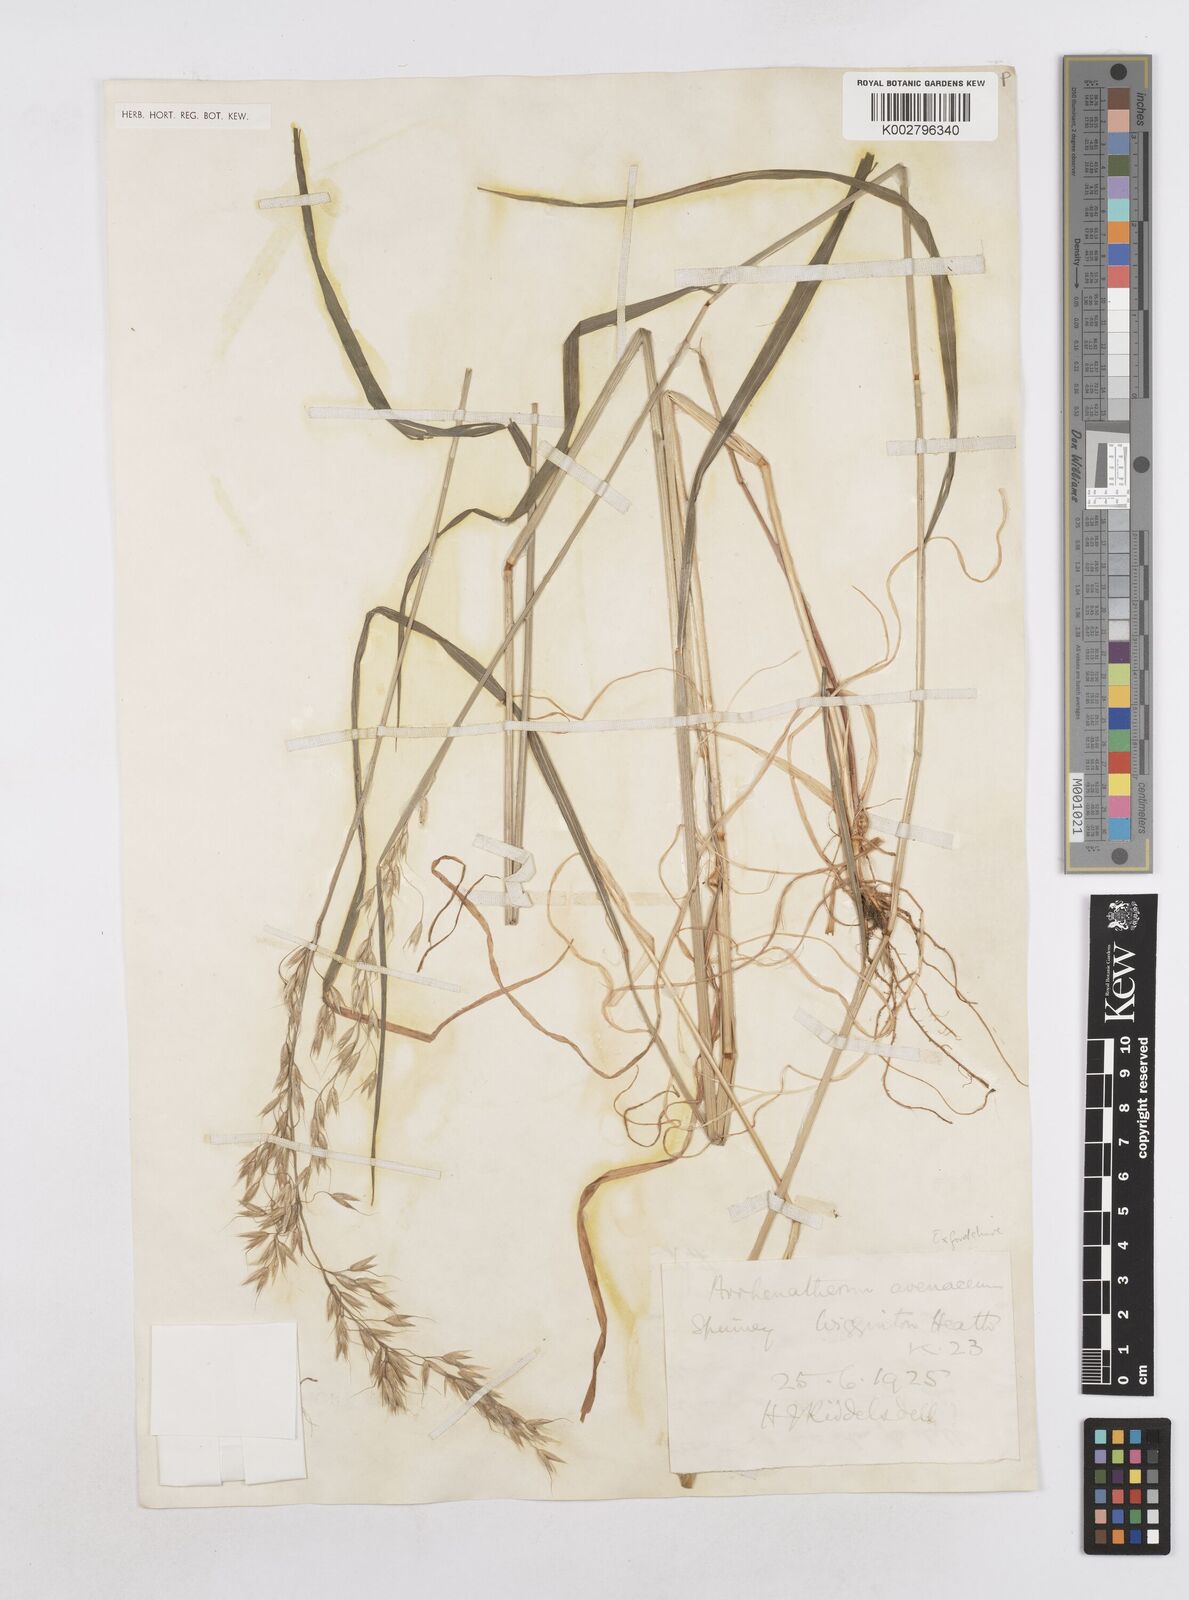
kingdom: Plantae
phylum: Tracheophyta
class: Liliopsida
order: Poales
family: Poaceae
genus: Arrhenatherum
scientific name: Arrhenatherum elatius
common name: Tall oatgrass
